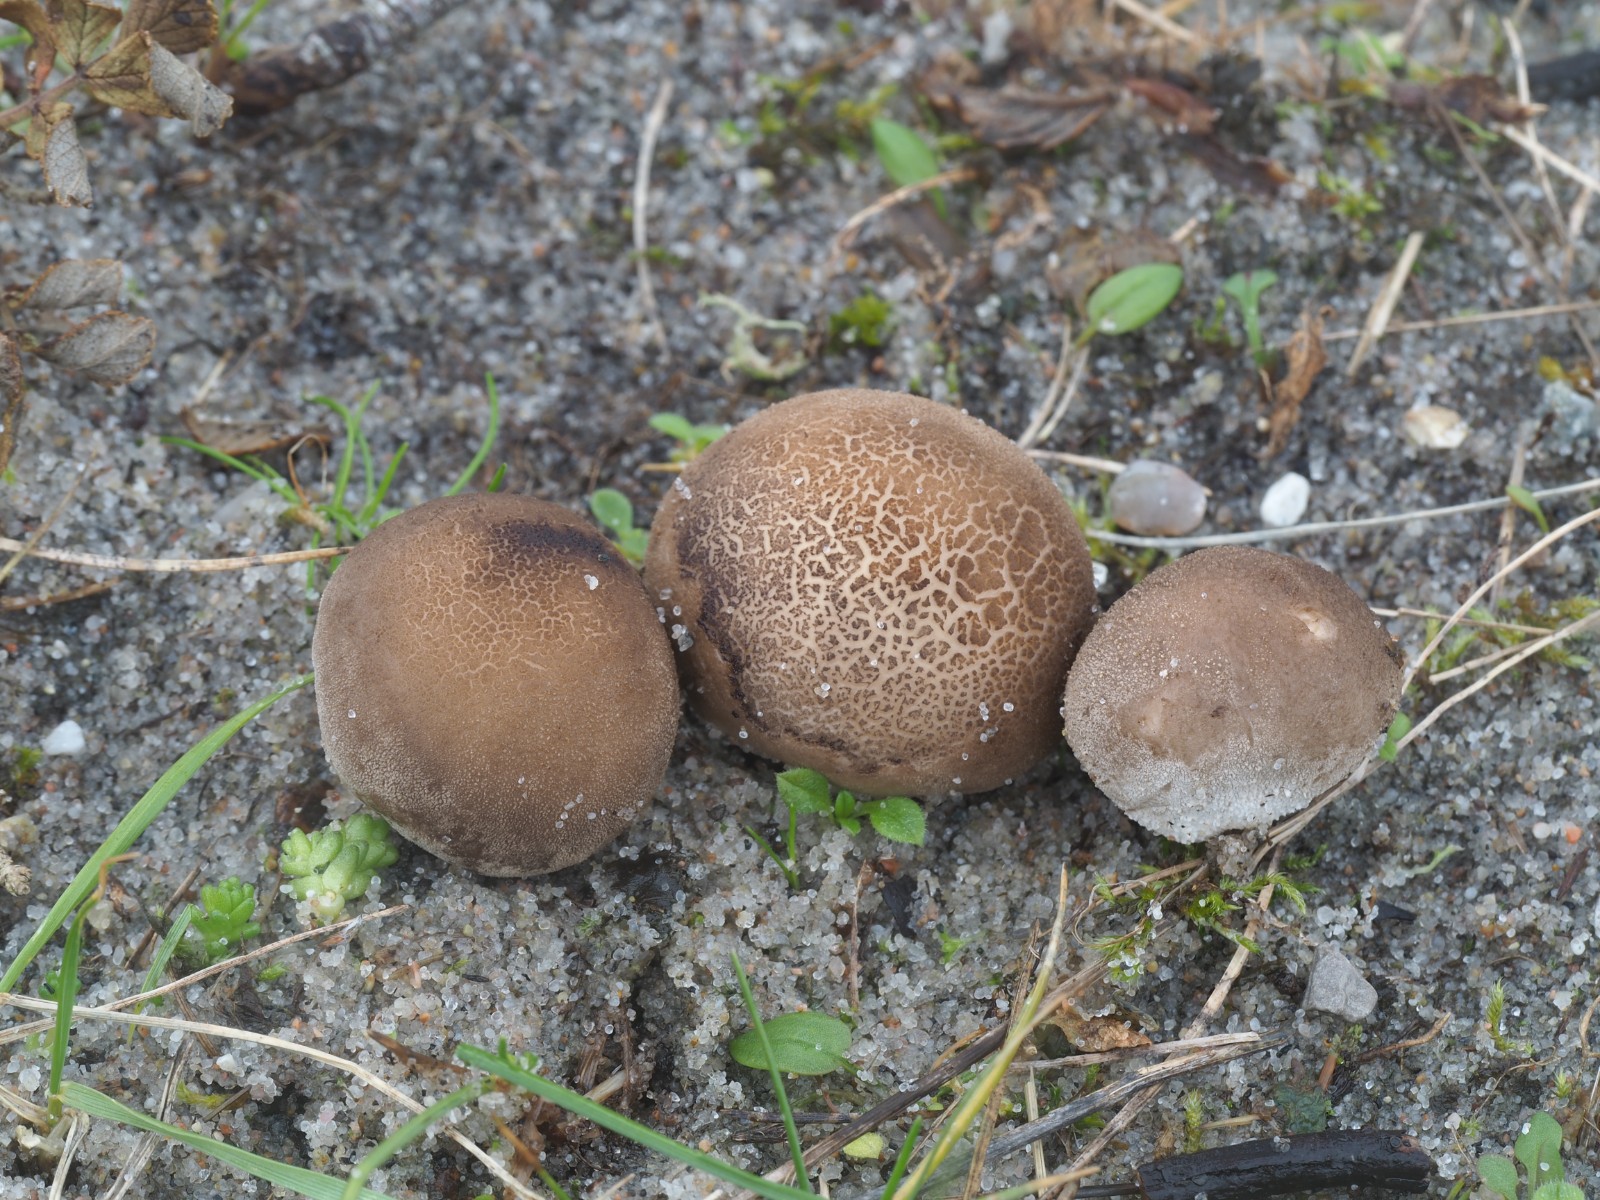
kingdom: Fungi
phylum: Basidiomycota
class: Agaricomycetes
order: Agaricales
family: Lycoperdaceae
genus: Bovista
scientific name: Bovista furfuracea
